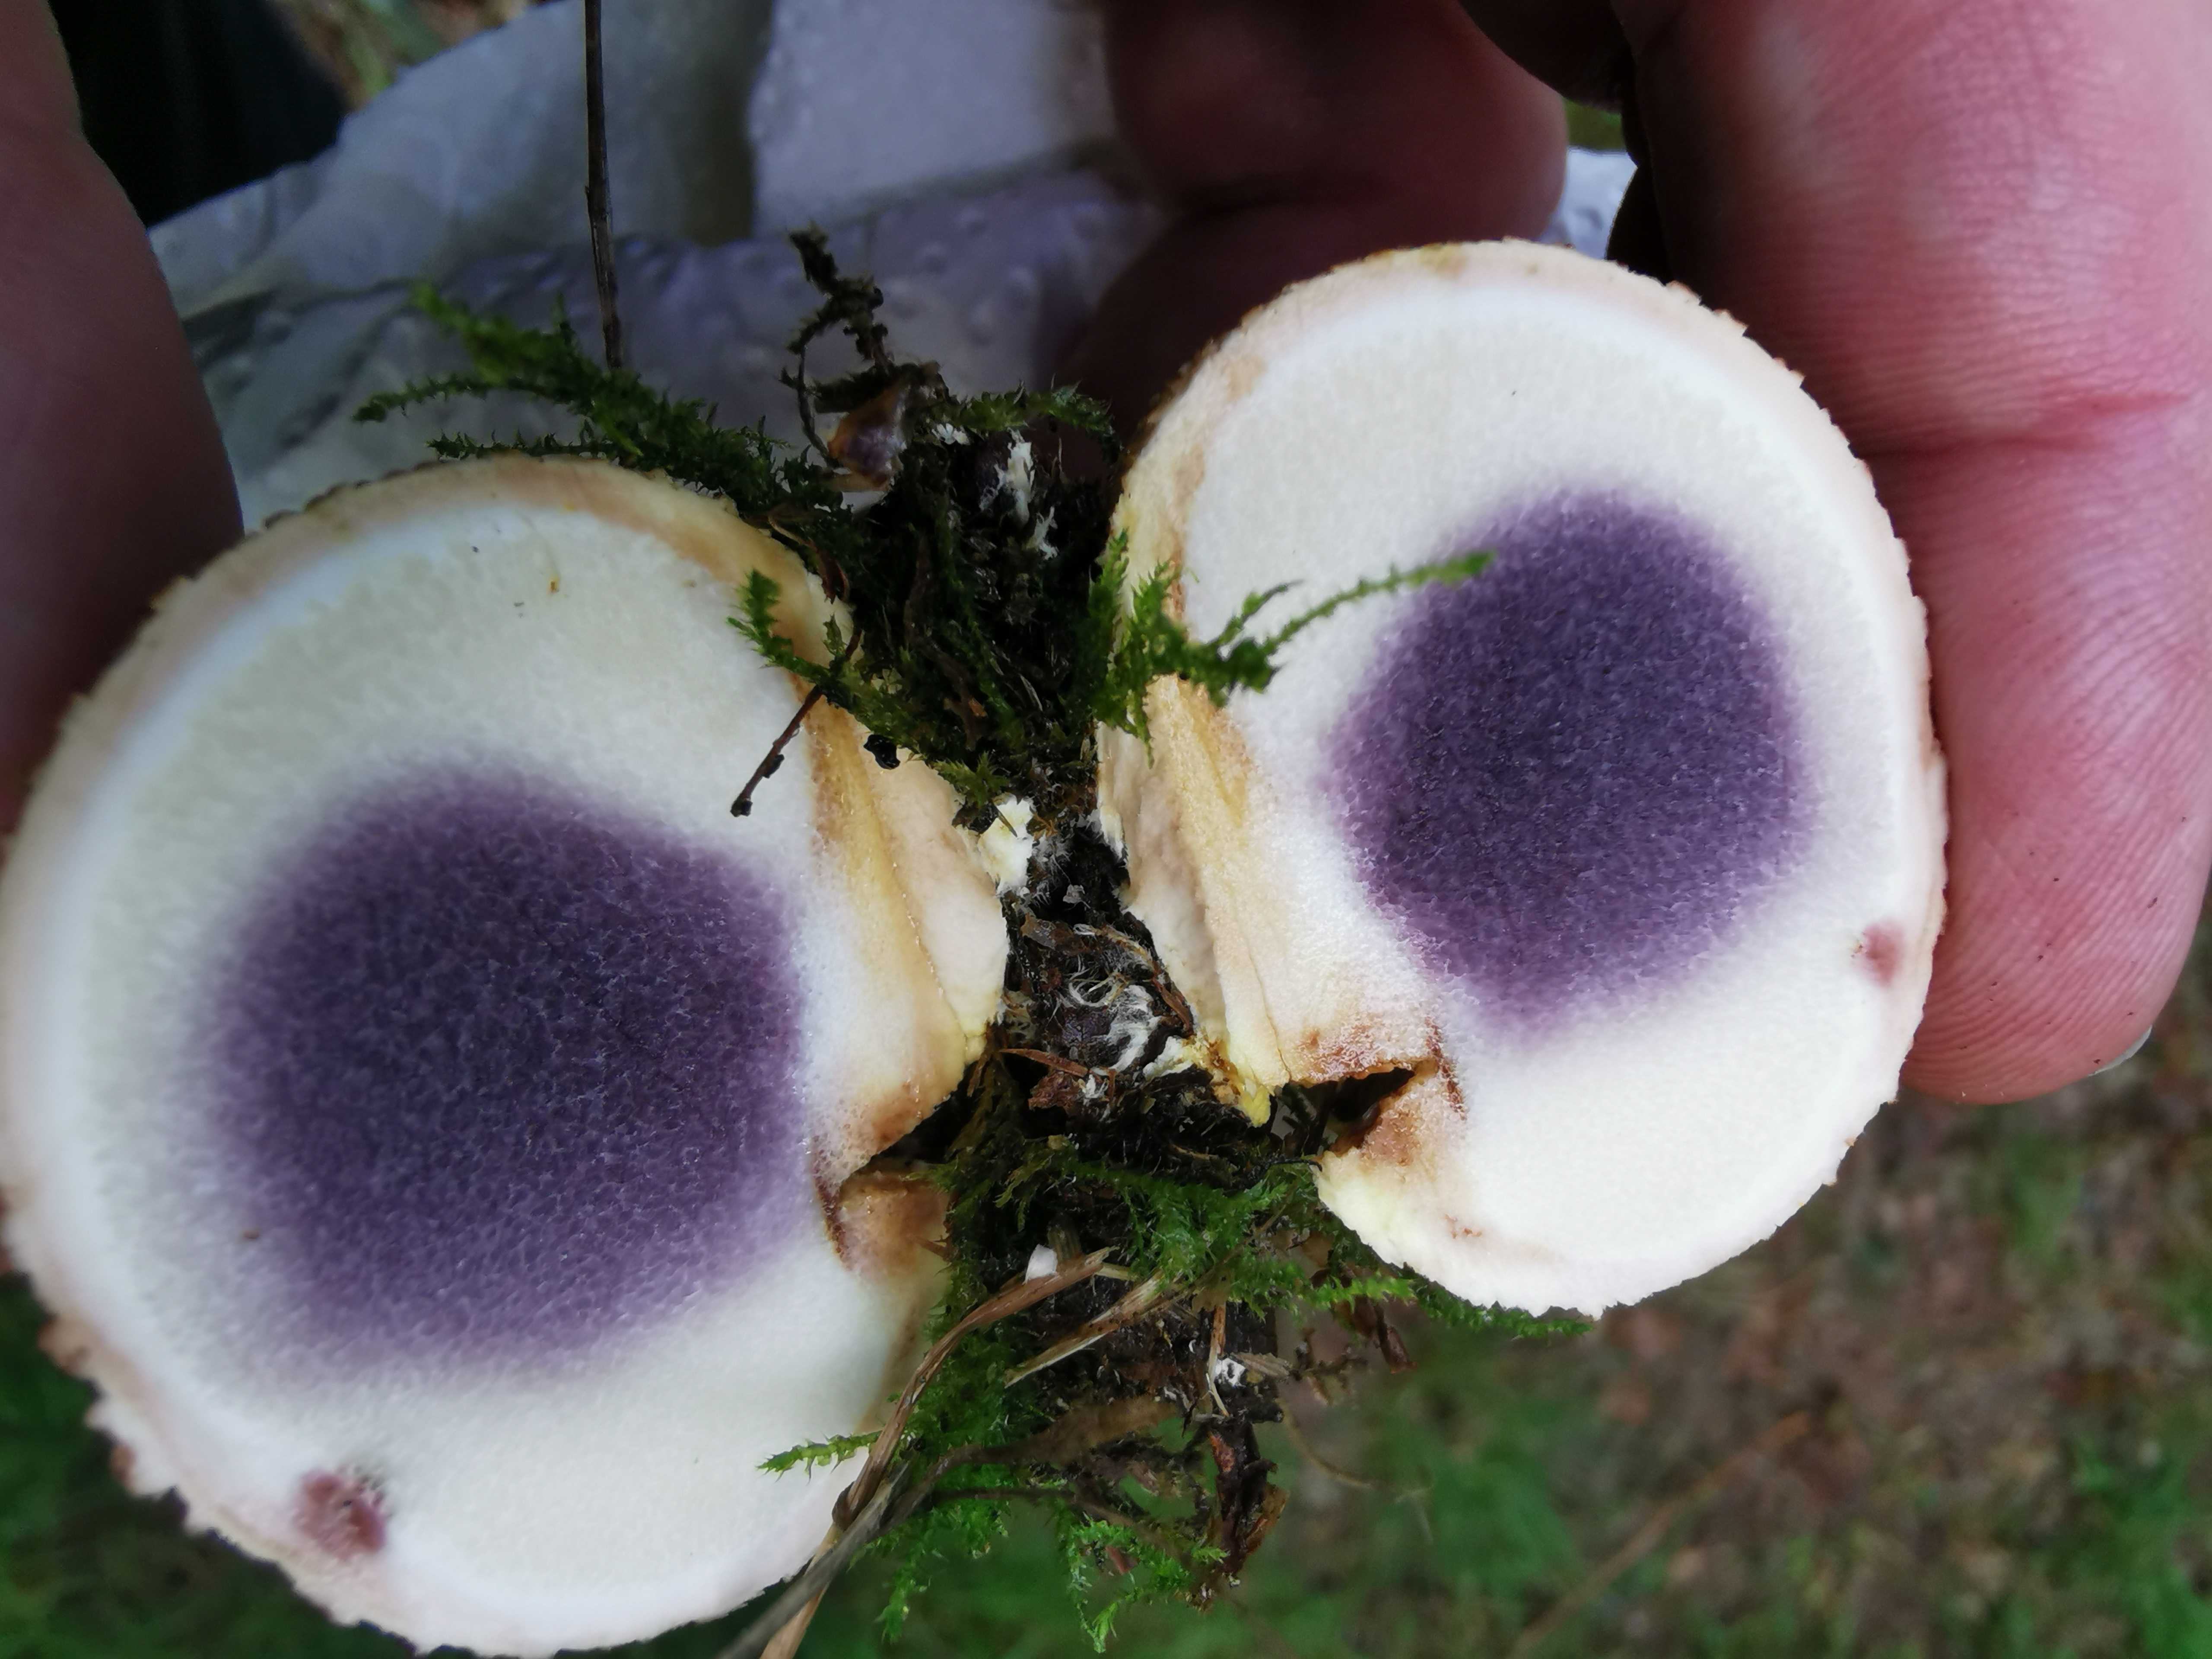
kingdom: Fungi
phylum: Basidiomycota
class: Agaricomycetes
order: Boletales
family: Sclerodermataceae
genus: Scleroderma
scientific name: Scleroderma citrinum
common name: almindelig bruskbold
